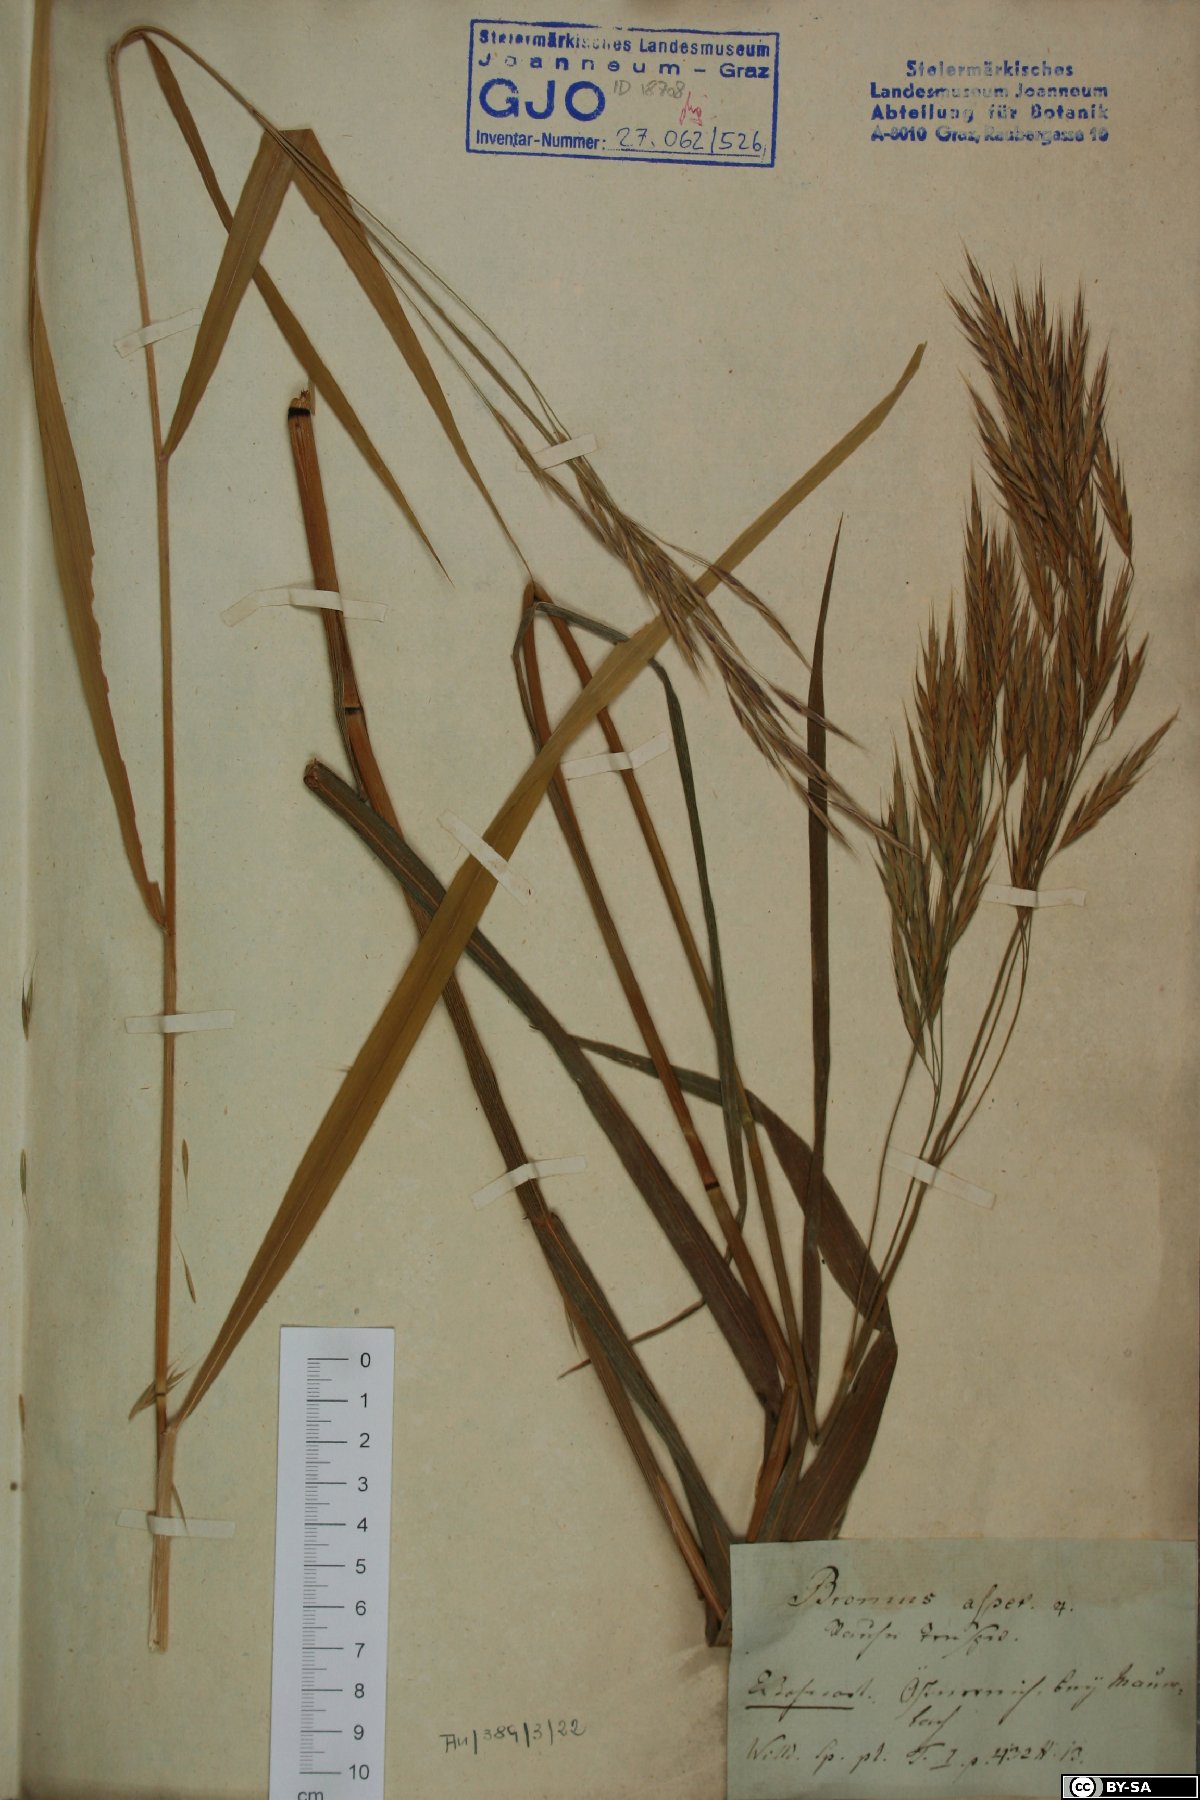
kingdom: Plantae
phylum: Tracheophyta
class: Liliopsida
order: Poales
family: Poaceae
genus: Bromus
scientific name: Bromus ramosus
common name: Hairy brome
